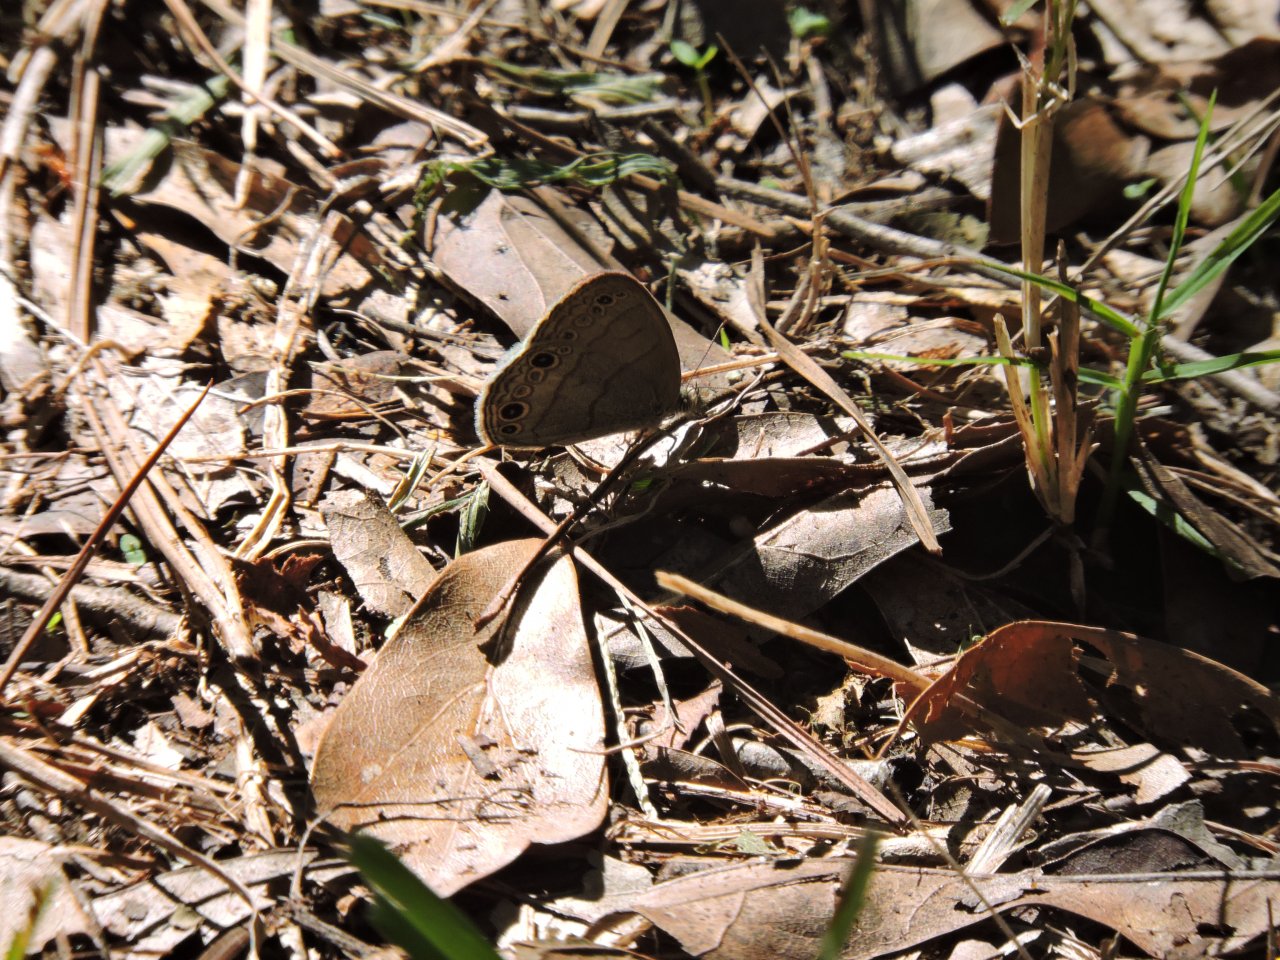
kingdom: Animalia
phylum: Arthropoda
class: Insecta
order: Lepidoptera
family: Nymphalidae
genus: Hermeuptychia
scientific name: Hermeuptychia hermes
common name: Carolina Satyr
